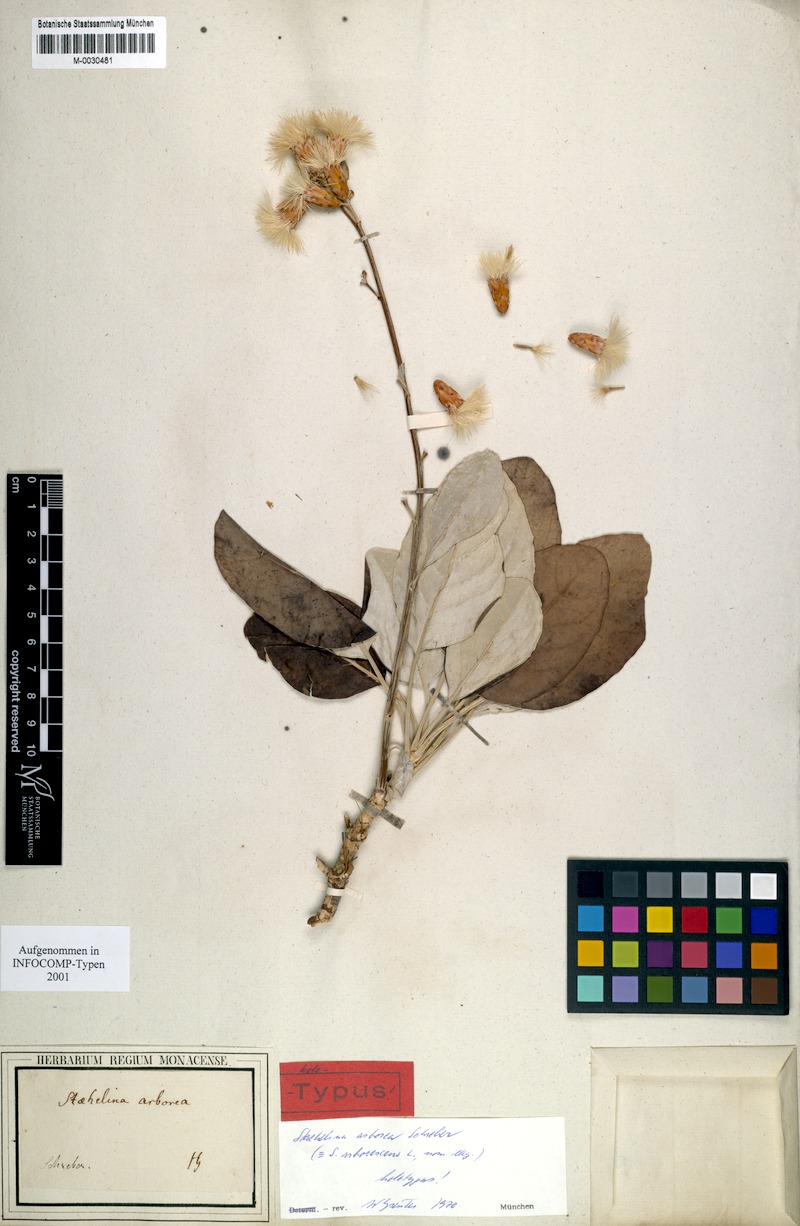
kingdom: Plantae
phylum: Tracheophyta
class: Magnoliopsida
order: Asterales
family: Asteraceae
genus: Staehelina
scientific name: Staehelina petiolata
